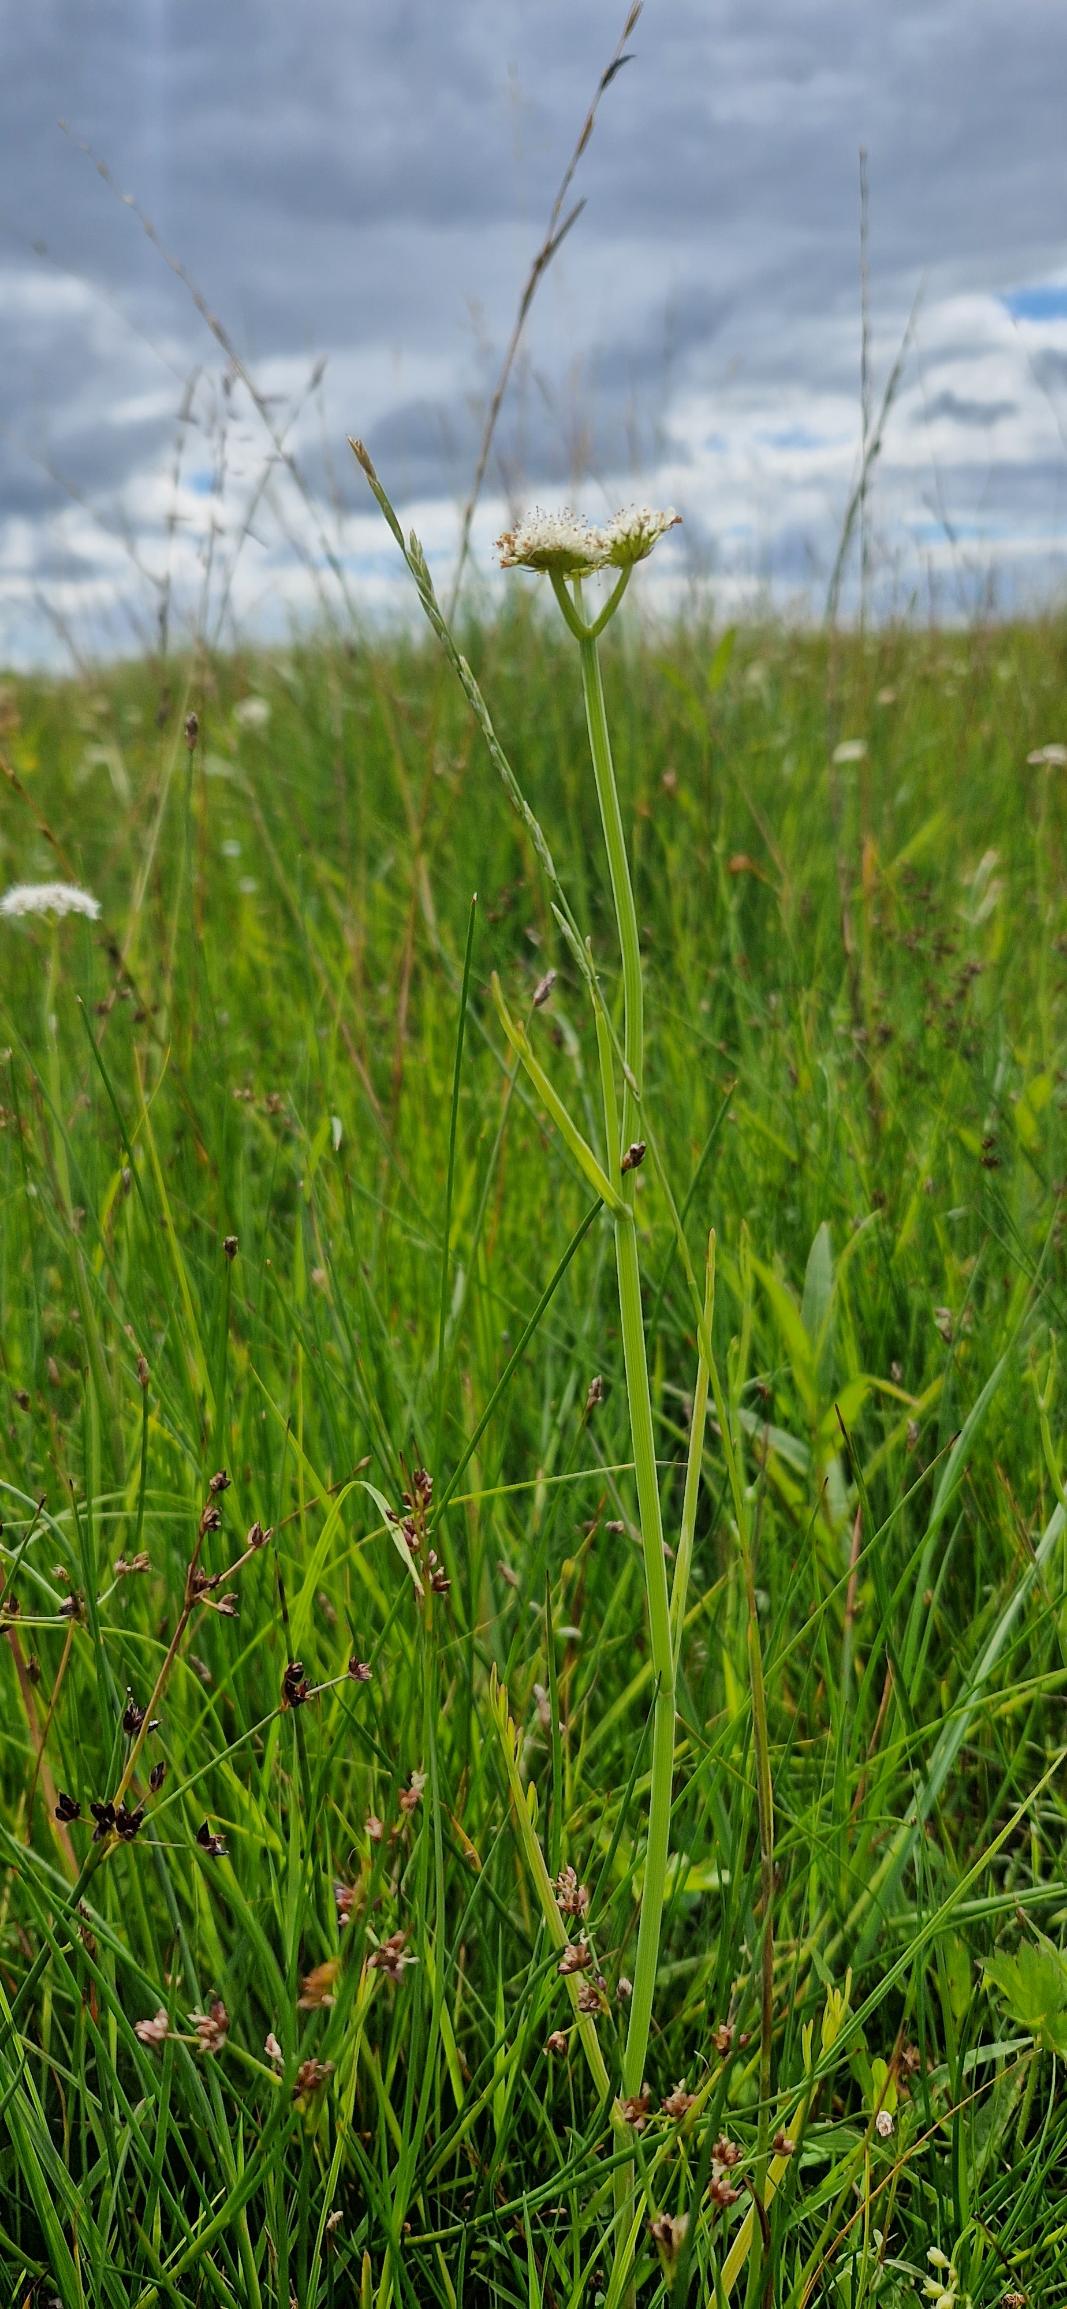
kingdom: Plantae
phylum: Tracheophyta
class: Magnoliopsida
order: Apiales
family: Apiaceae
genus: Oenanthe
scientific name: Oenanthe fistulosa
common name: Vand-klaseskærm
